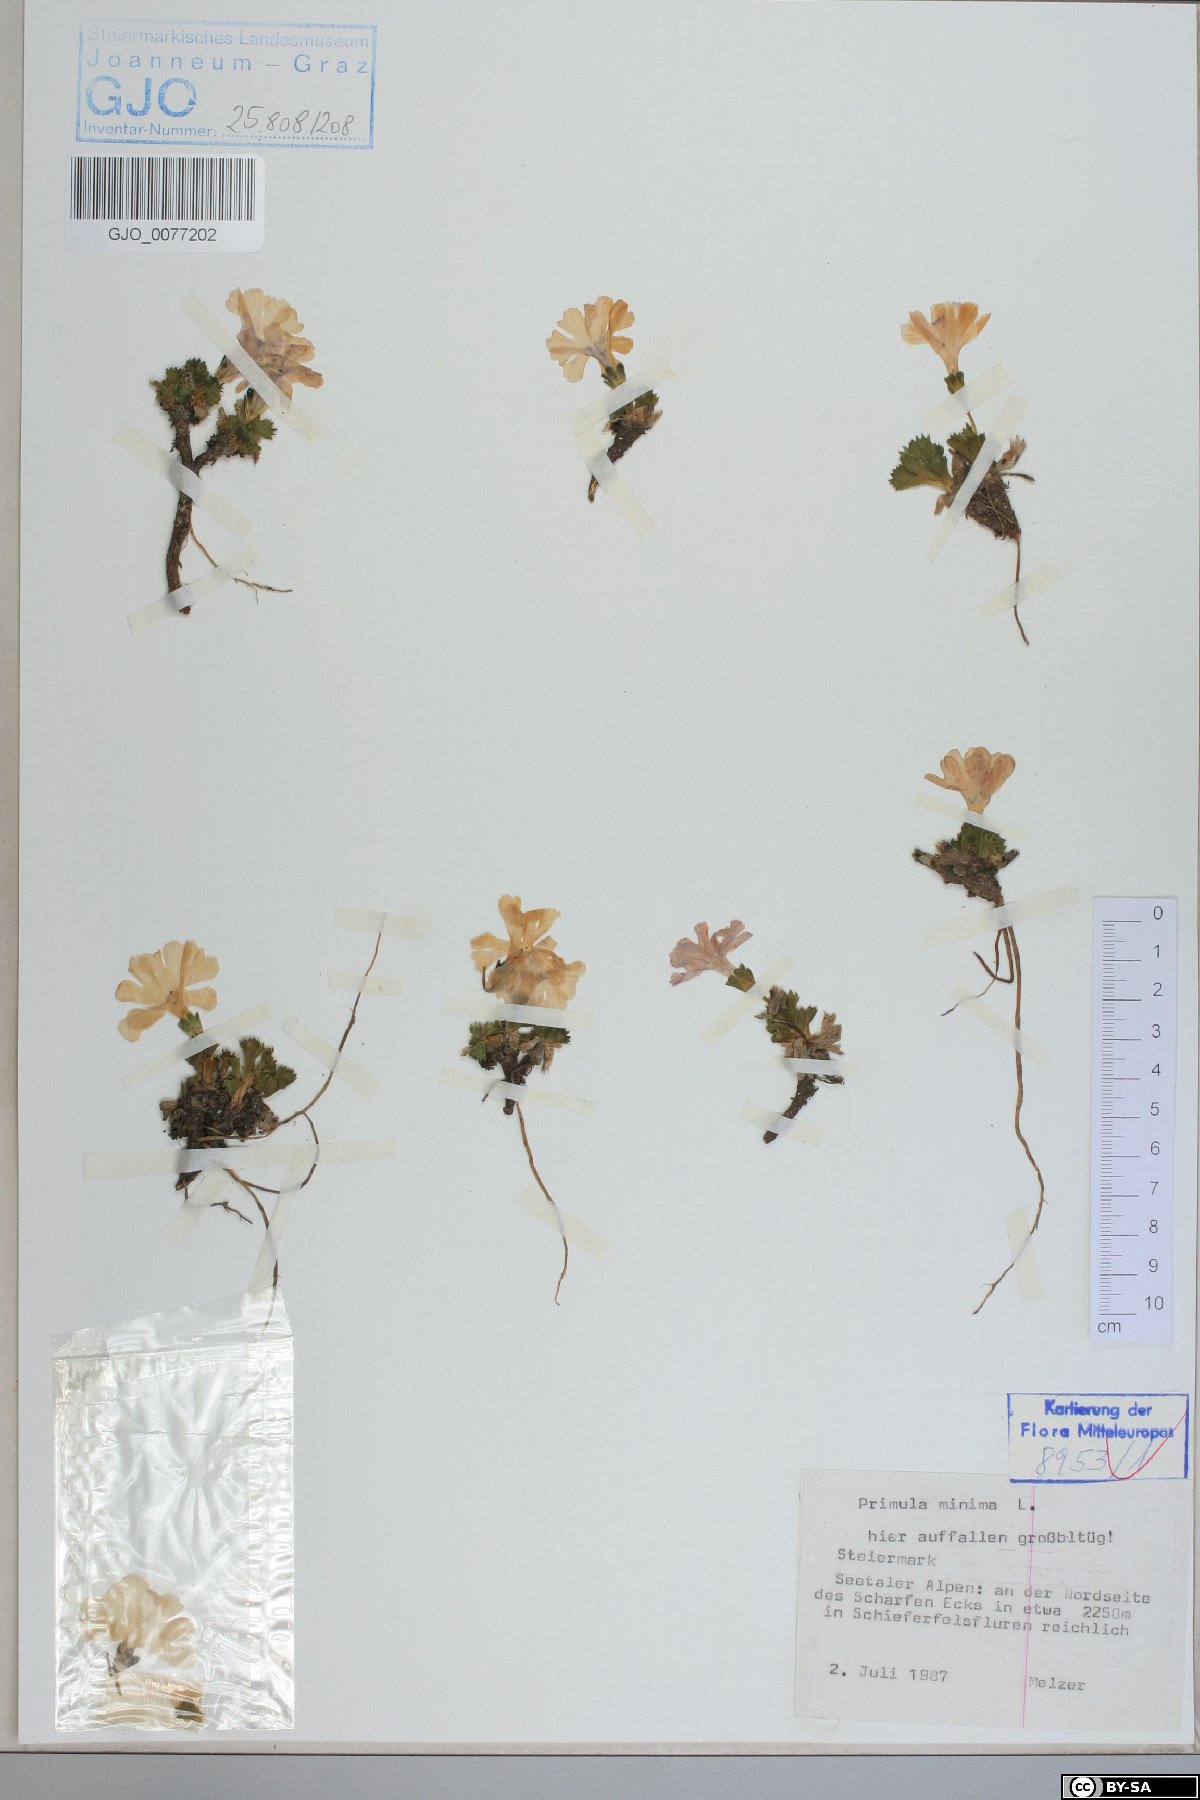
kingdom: Plantae
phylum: Tracheophyta
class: Magnoliopsida
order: Ericales
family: Primulaceae
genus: Primula
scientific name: Primula minima
